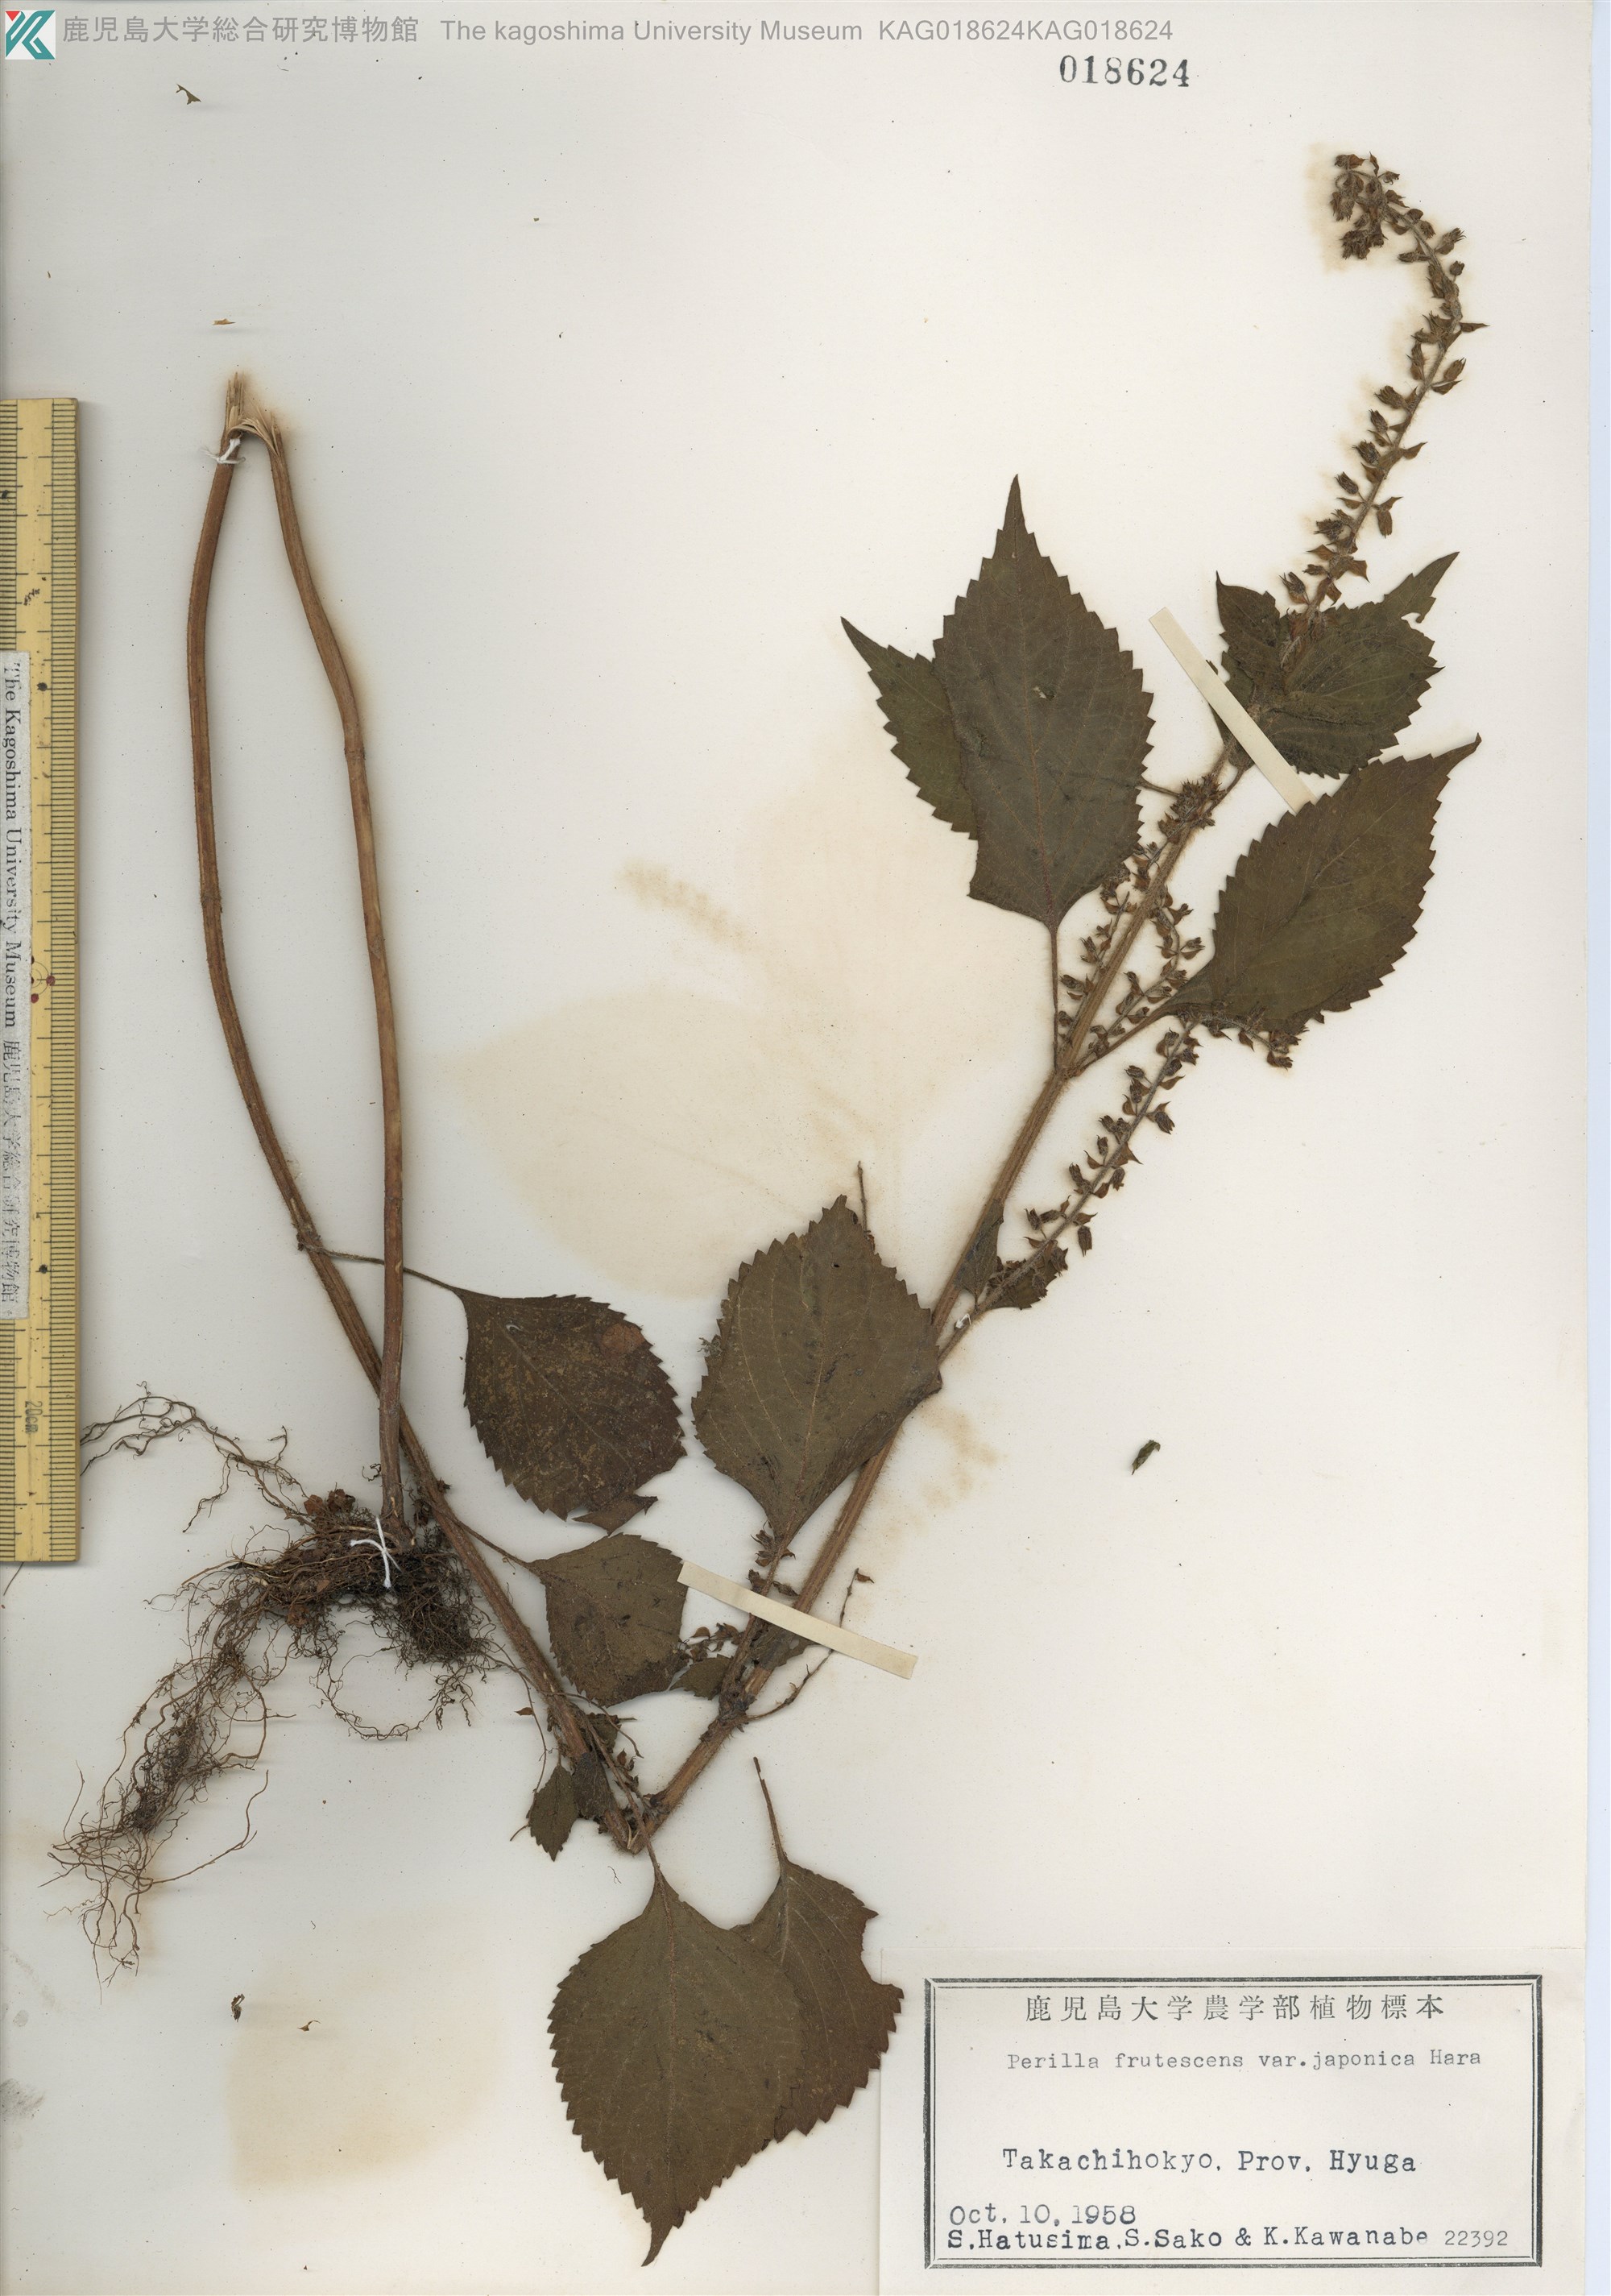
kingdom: Plantae
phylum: Tracheophyta
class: Magnoliopsida
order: Lamiales
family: Lamiaceae
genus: Perilla
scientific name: Perilla frutescens
